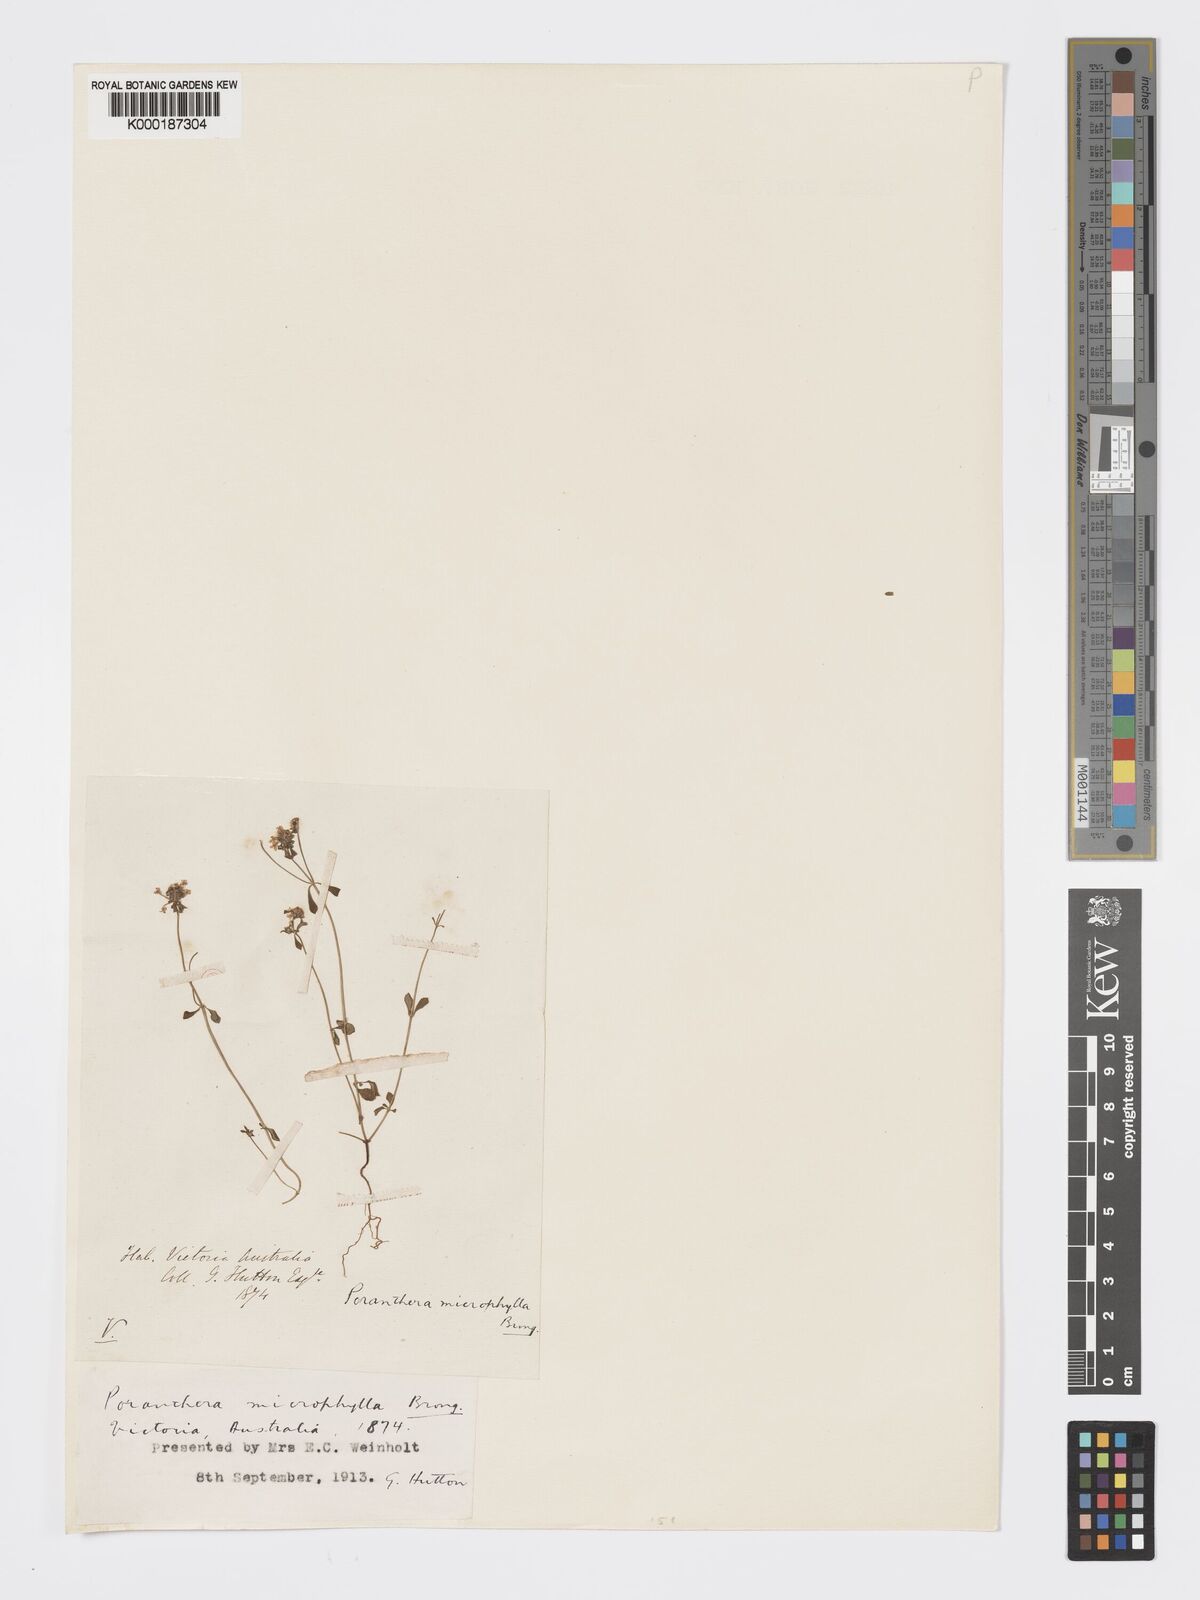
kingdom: Plantae
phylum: Tracheophyta
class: Magnoliopsida
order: Malpighiales
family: Phyllanthaceae
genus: Poranthera
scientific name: Poranthera microphylla
